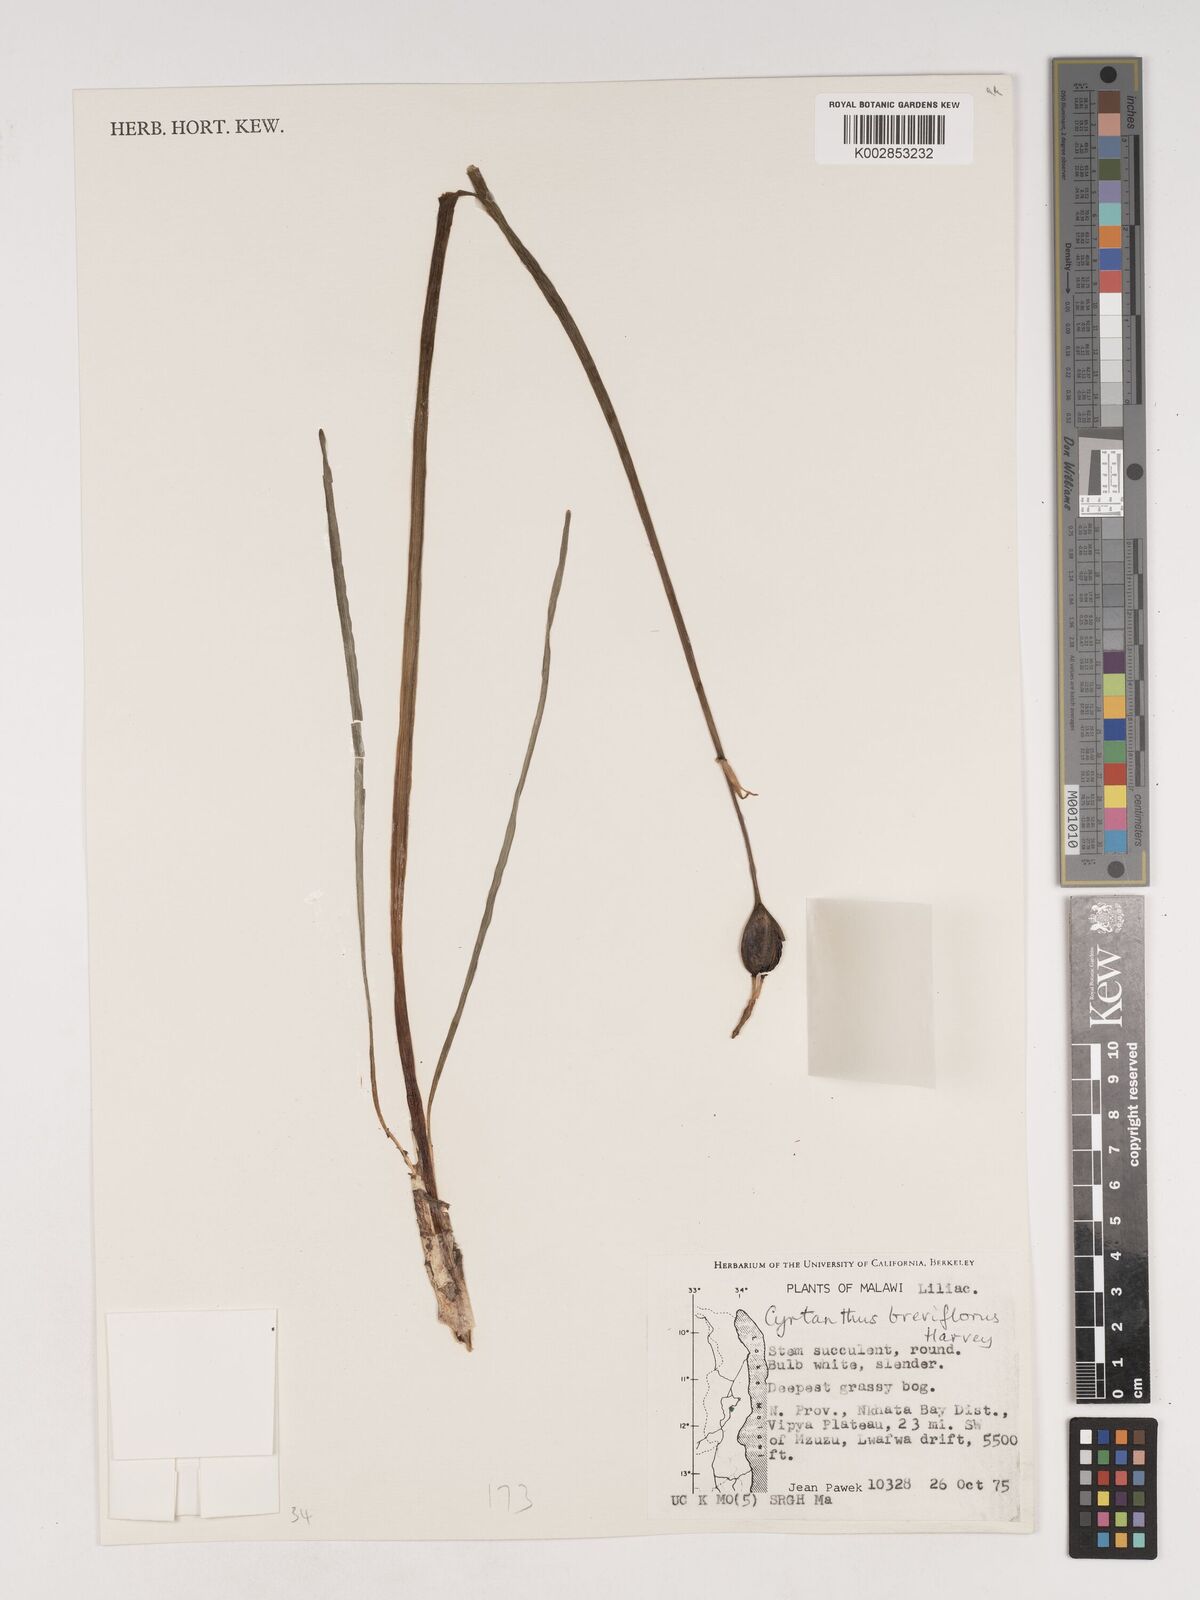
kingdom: Plantae
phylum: Tracheophyta
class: Liliopsida
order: Asparagales
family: Amaryllidaceae
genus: Cyrtanthus
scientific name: Cyrtanthus breviflorus
